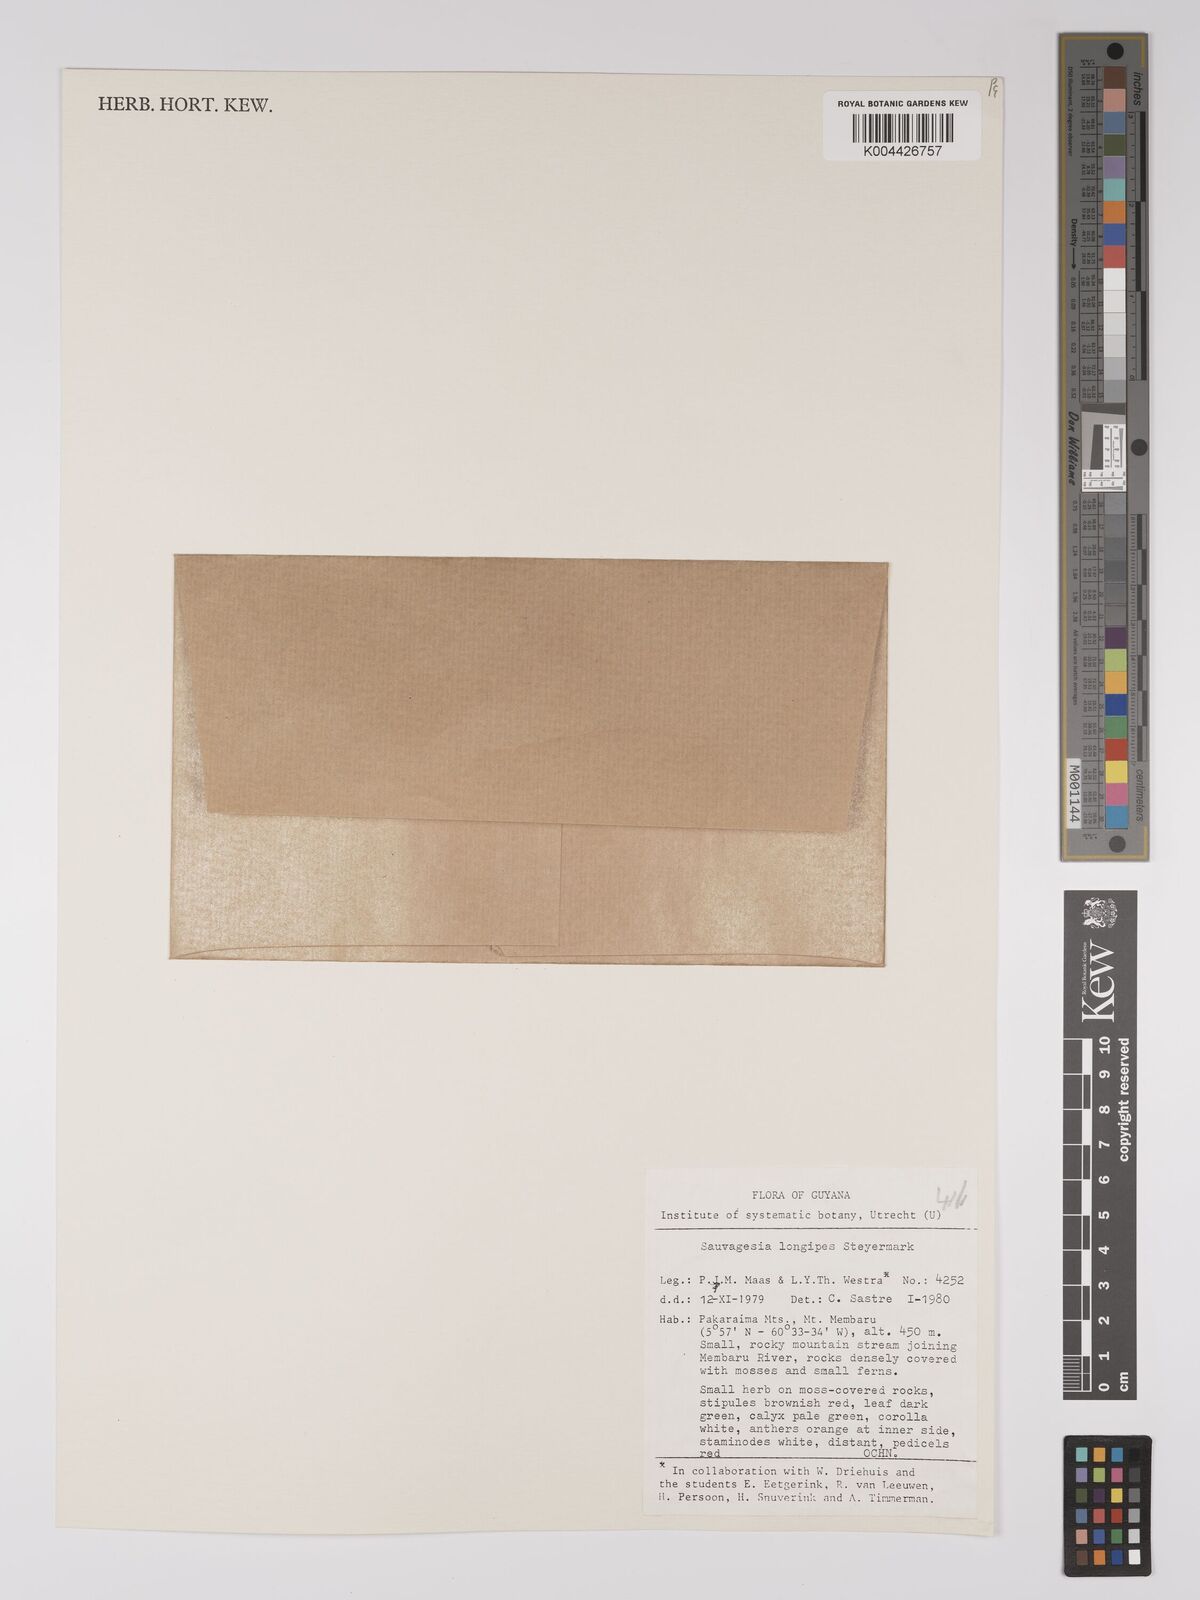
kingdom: Plantae
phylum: Tracheophyta
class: Magnoliopsida
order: Malpighiales
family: Ochnaceae
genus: Sauvagesia
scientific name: Sauvagesia longipes
